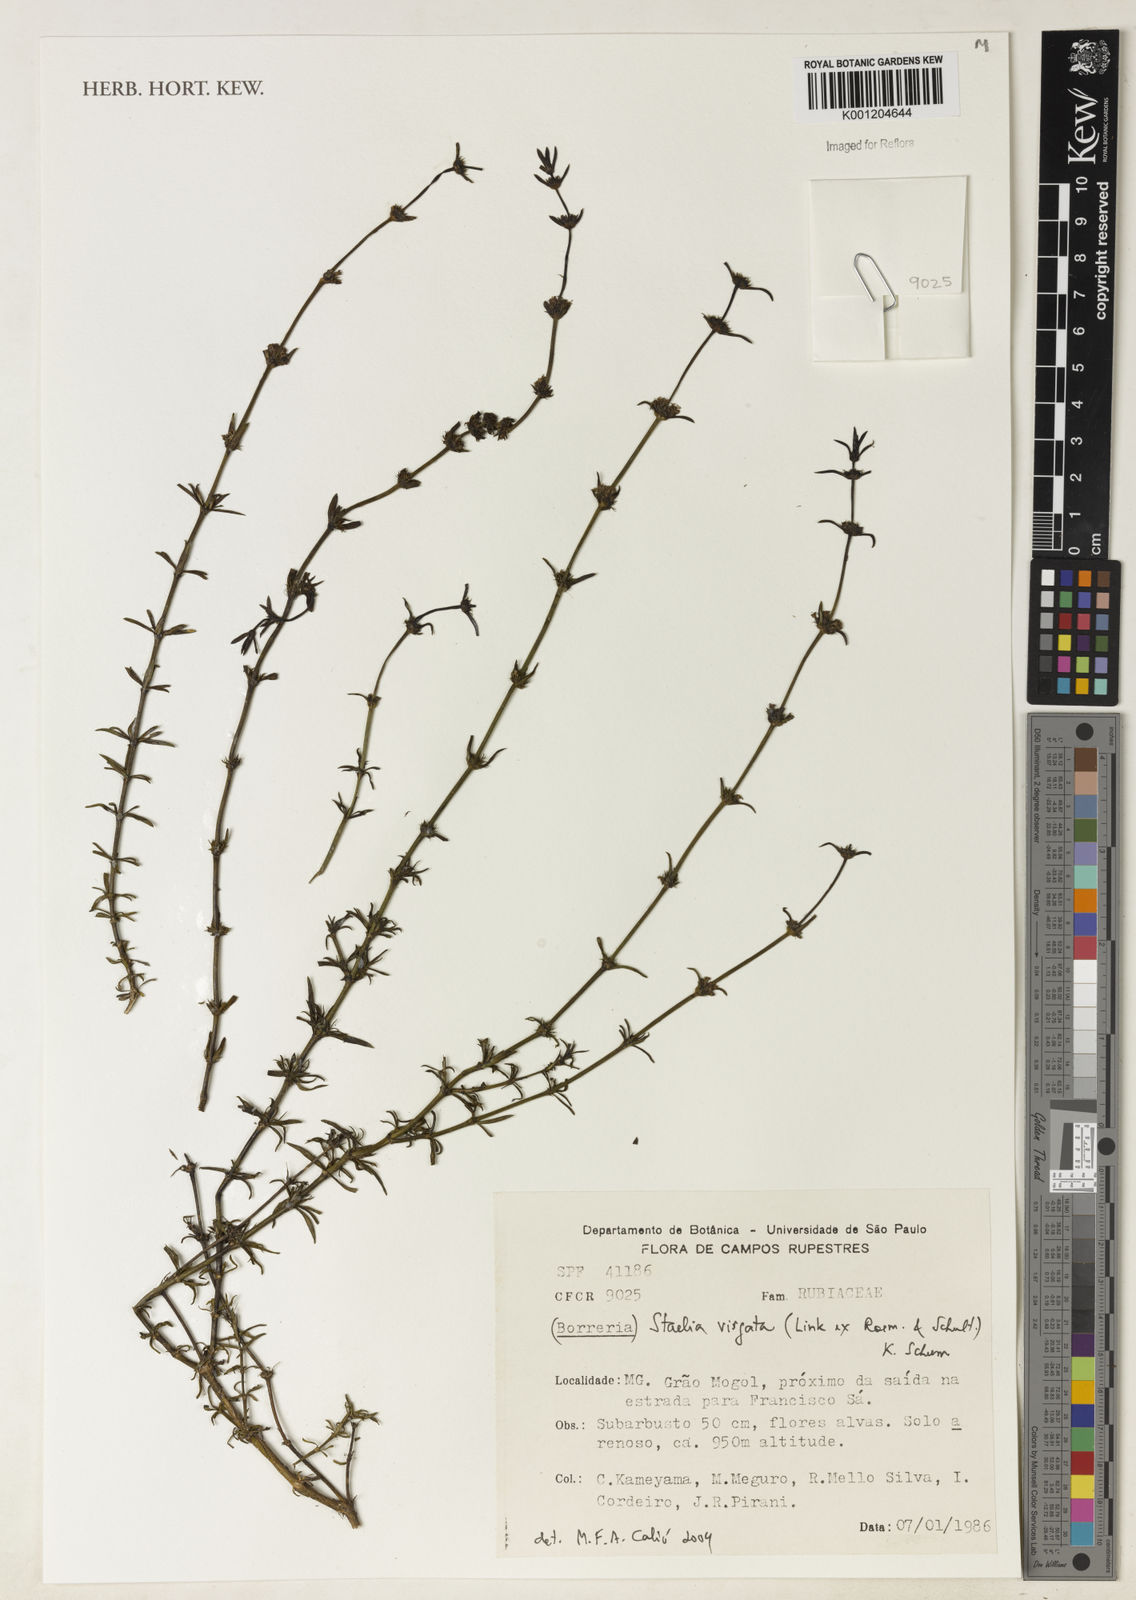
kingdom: Plantae
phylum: Tracheophyta
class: Magnoliopsida
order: Gentianales
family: Rubiaceae
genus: Staelia
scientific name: Staelia virgata
